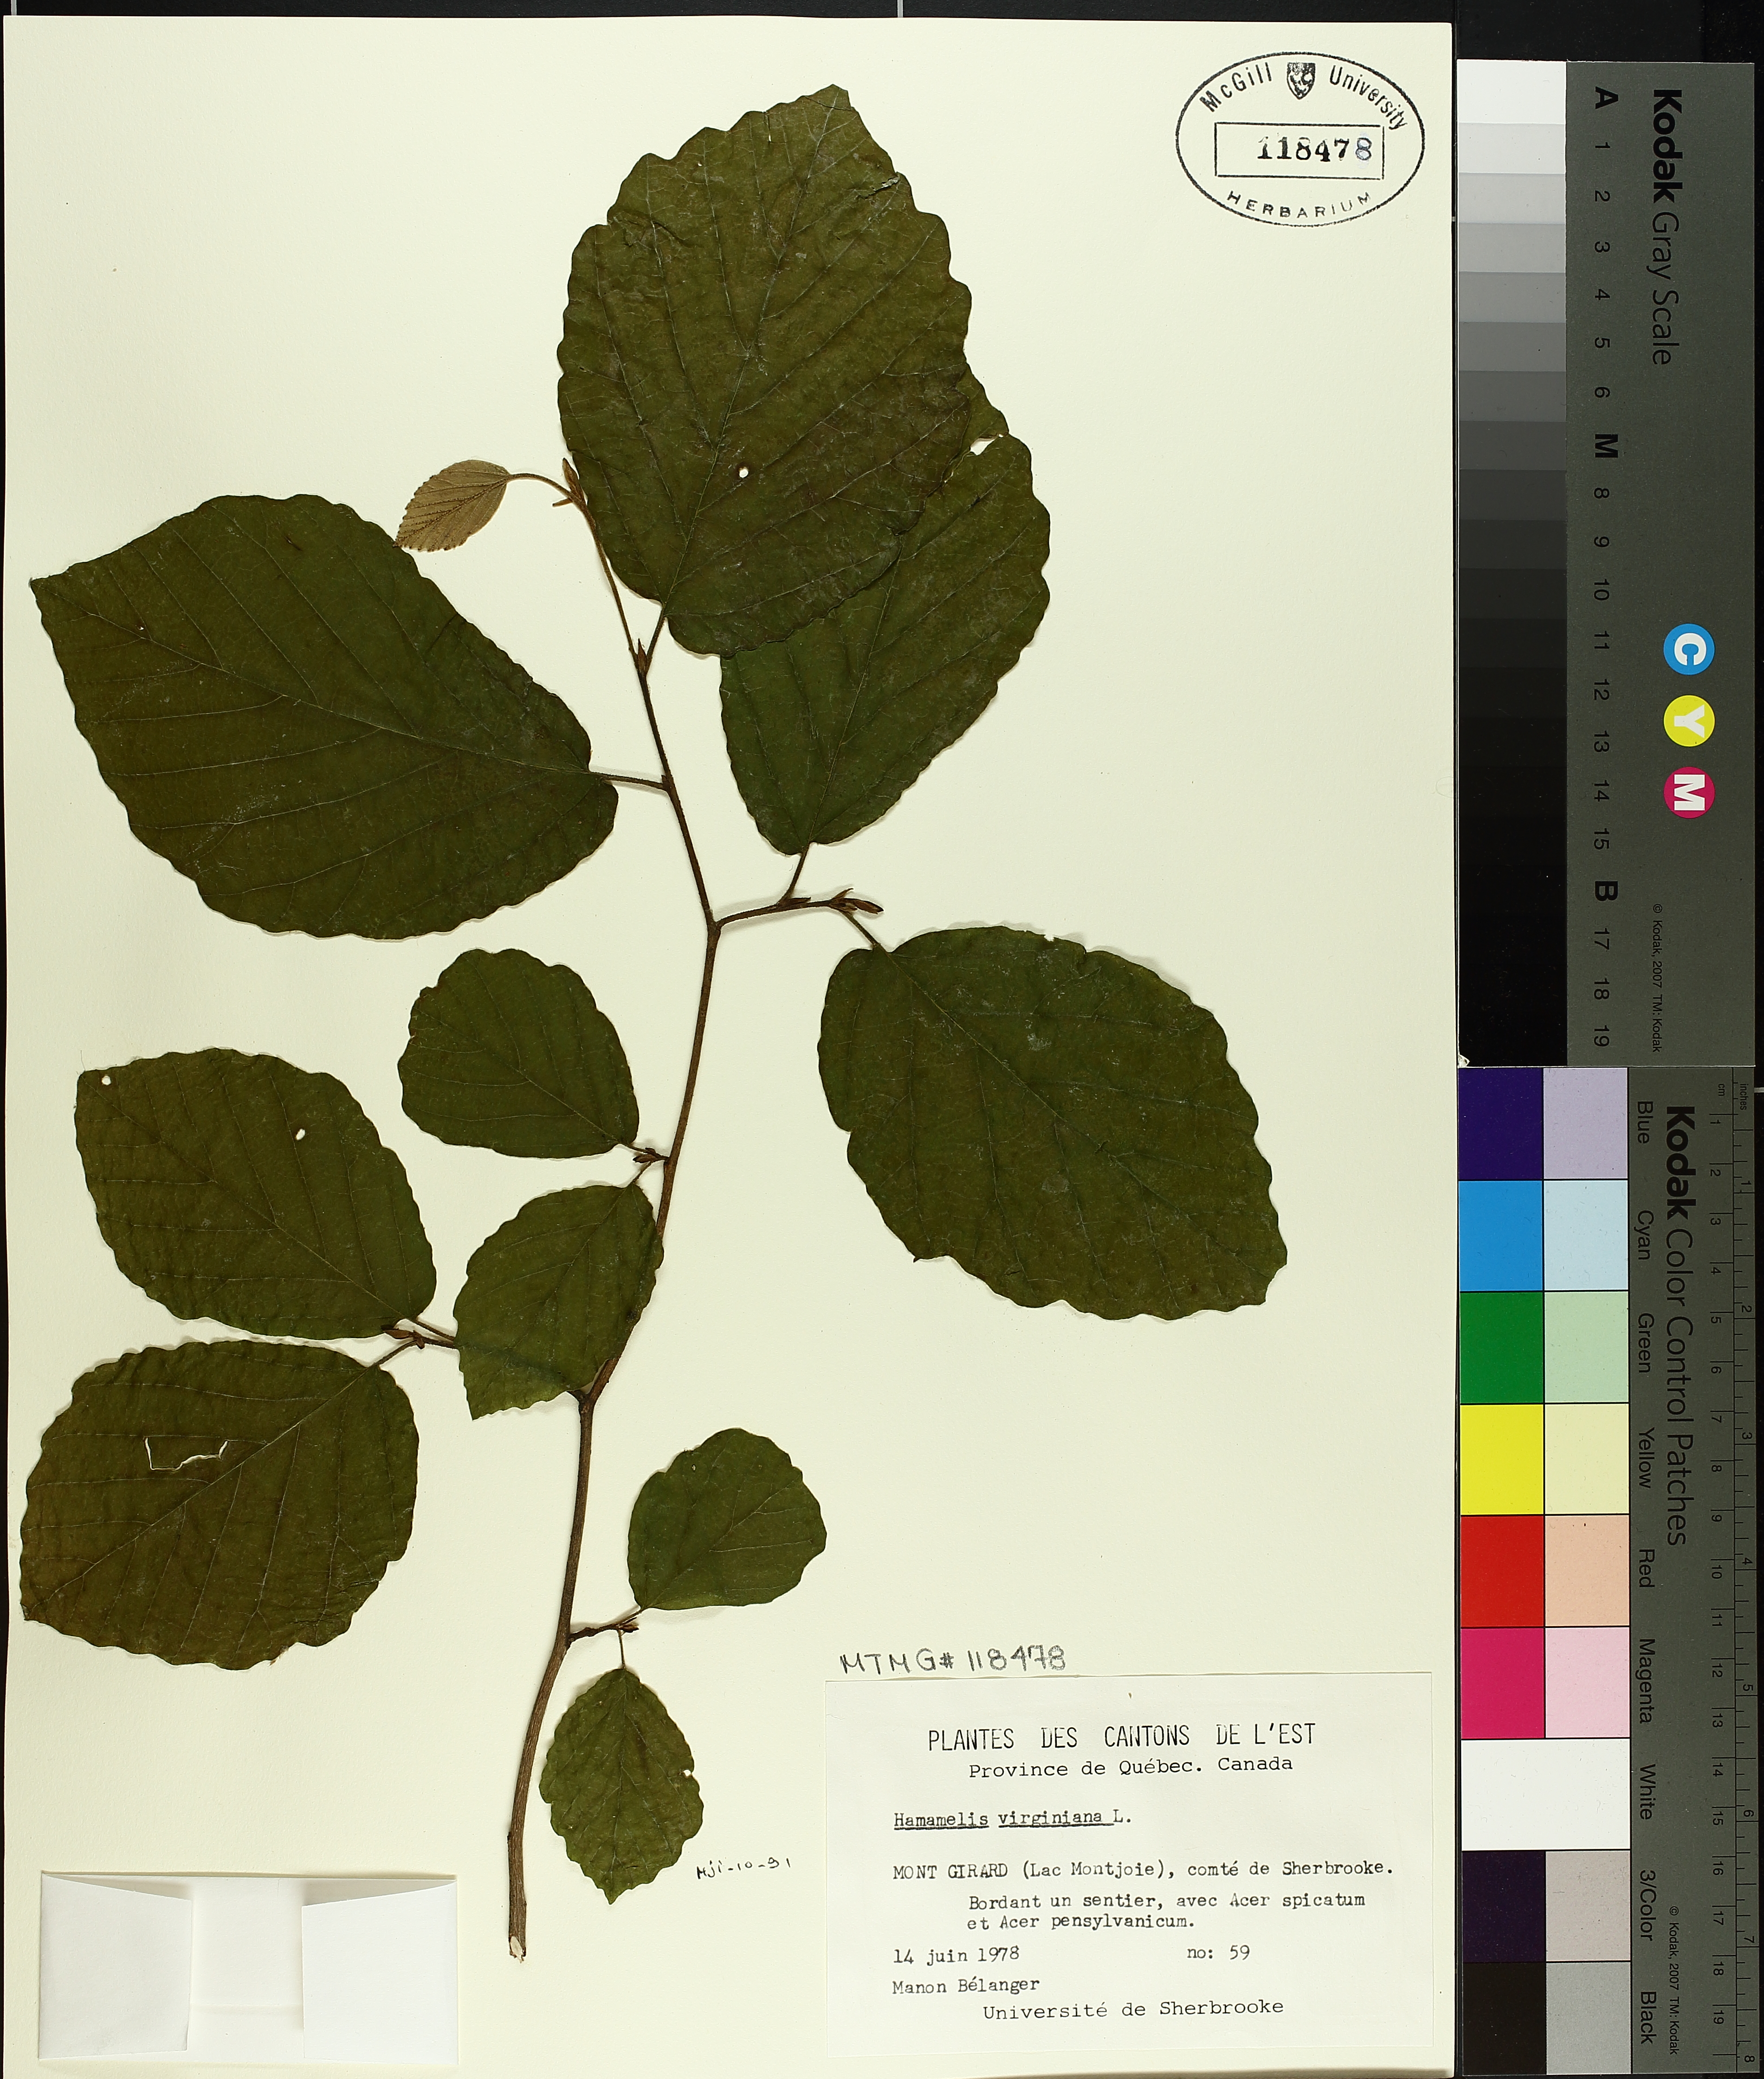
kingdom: Plantae
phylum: Tracheophyta
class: Magnoliopsida
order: Saxifragales
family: Hamamelidaceae
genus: Hamamelis
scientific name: Hamamelis virginiana
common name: Witch-hazel
